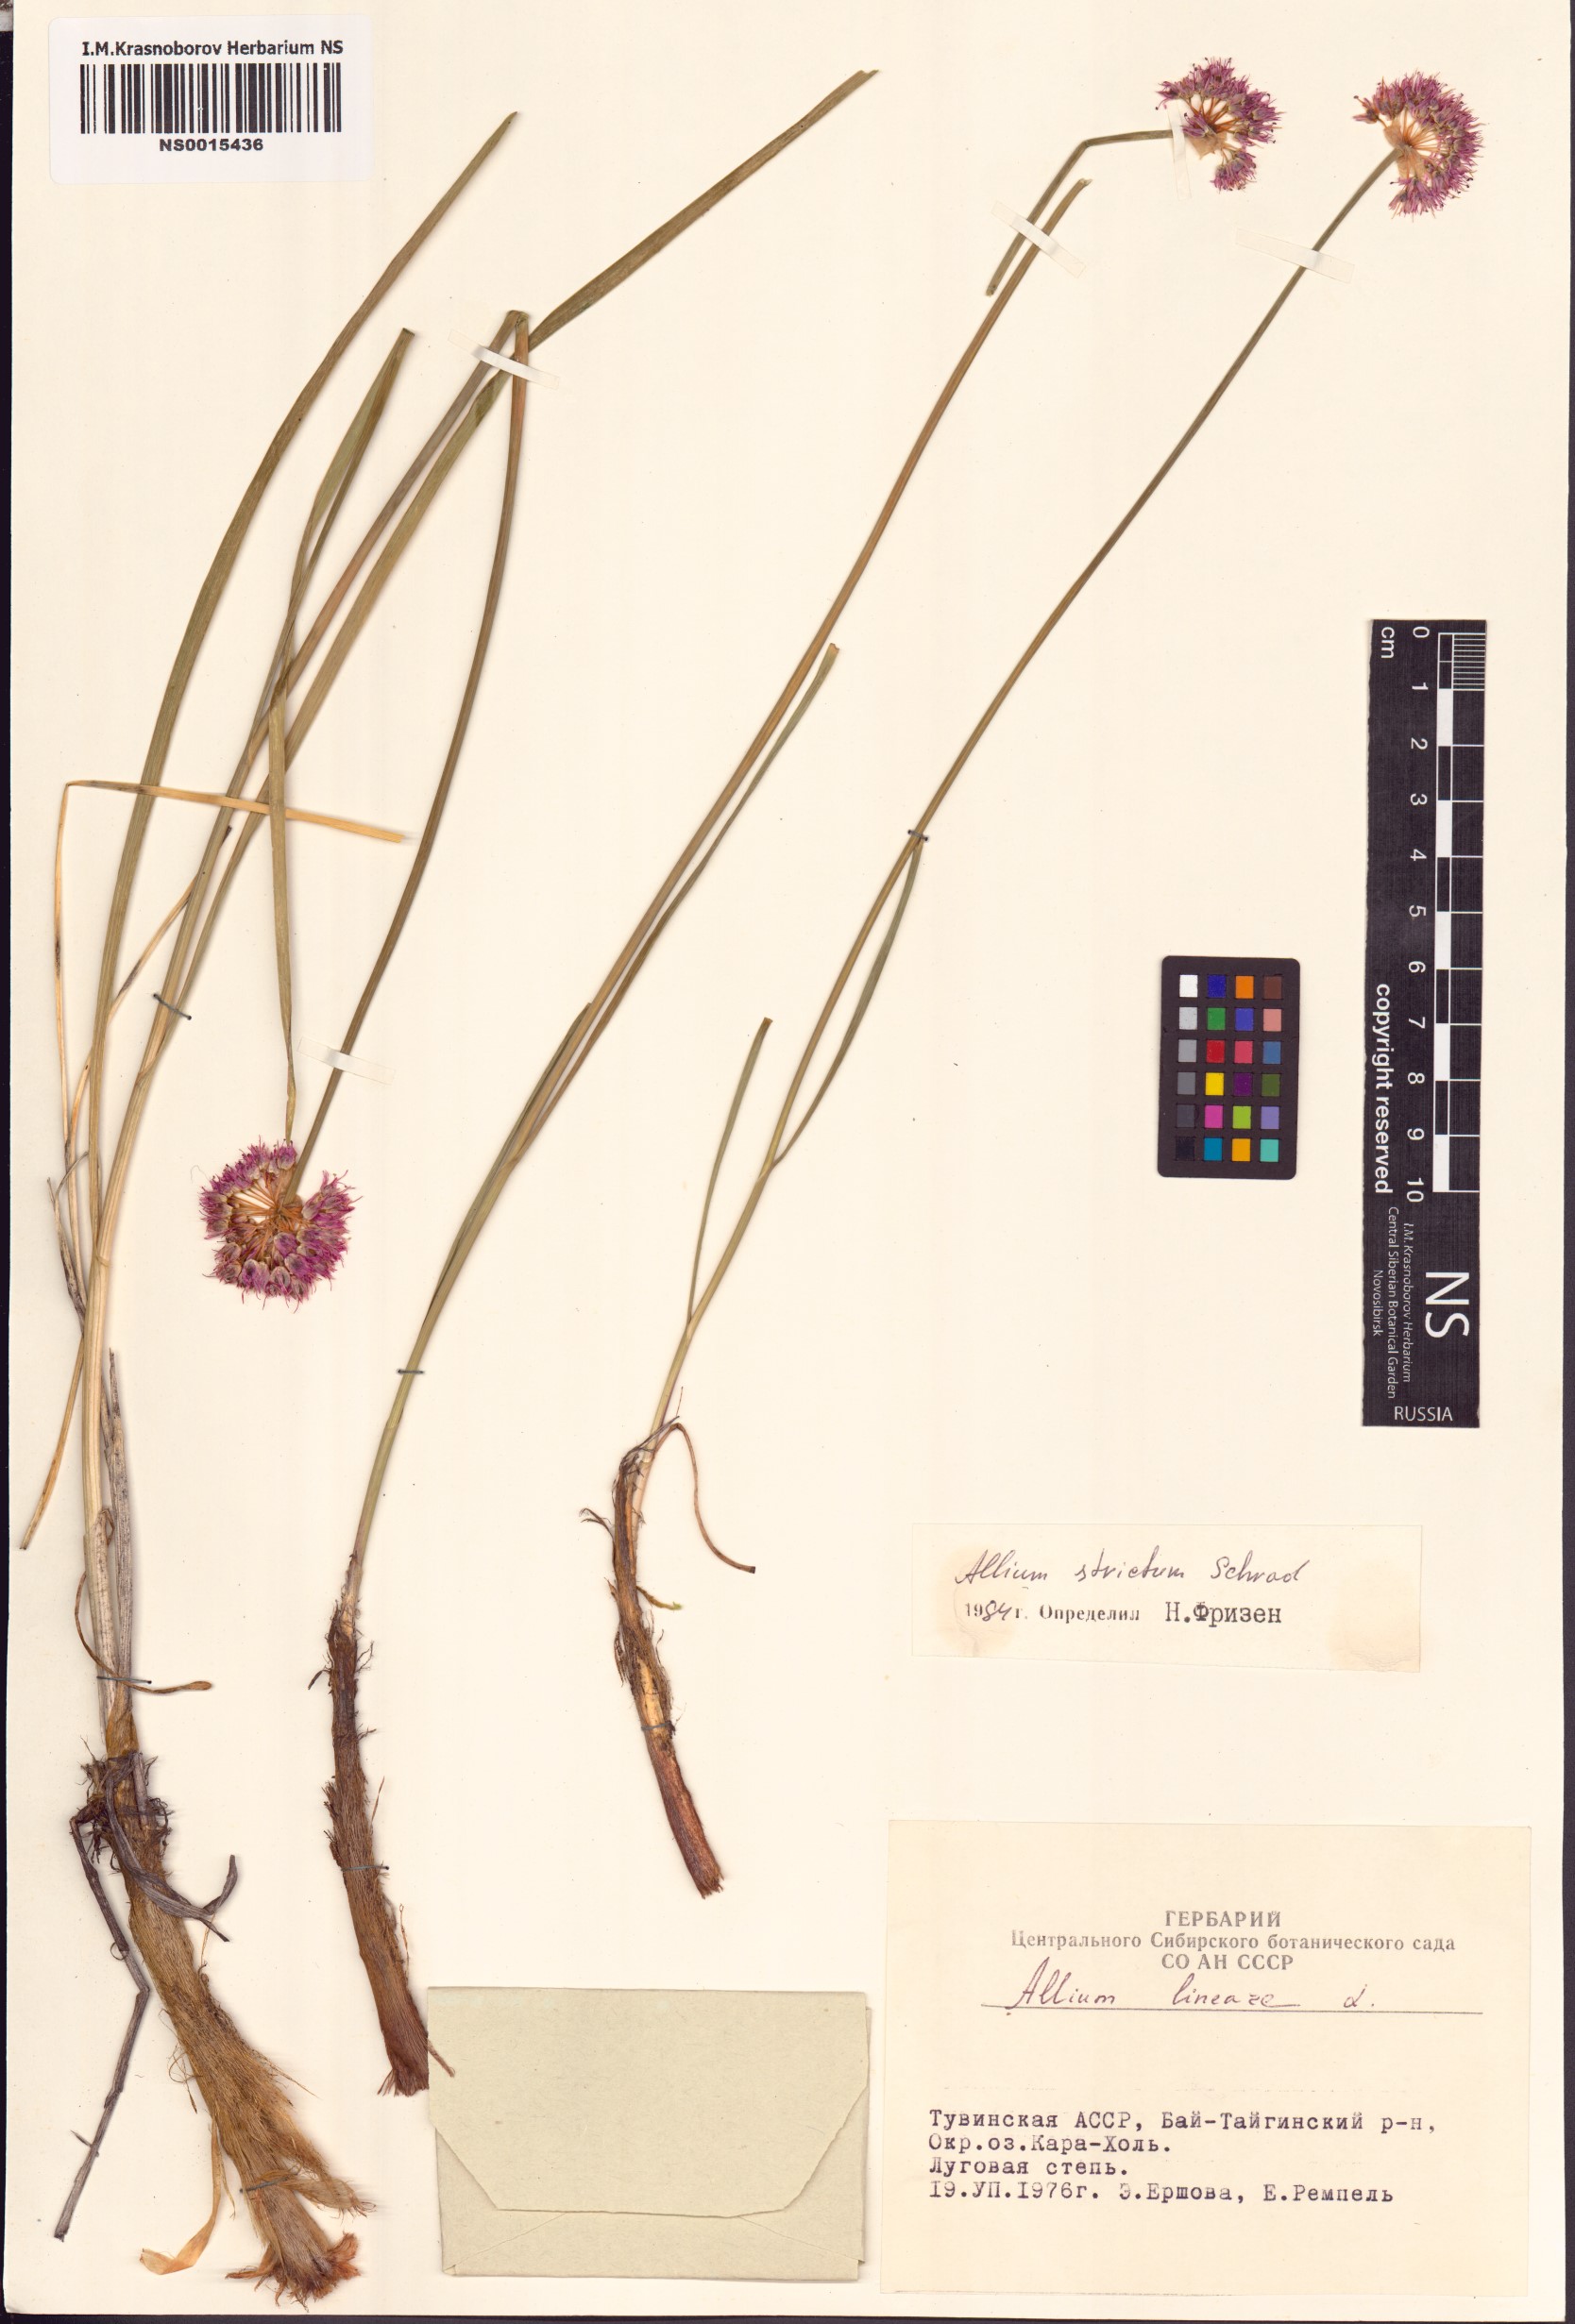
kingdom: Plantae
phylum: Tracheophyta
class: Liliopsida
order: Asparagales
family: Amaryllidaceae
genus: Allium
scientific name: Allium strictum
